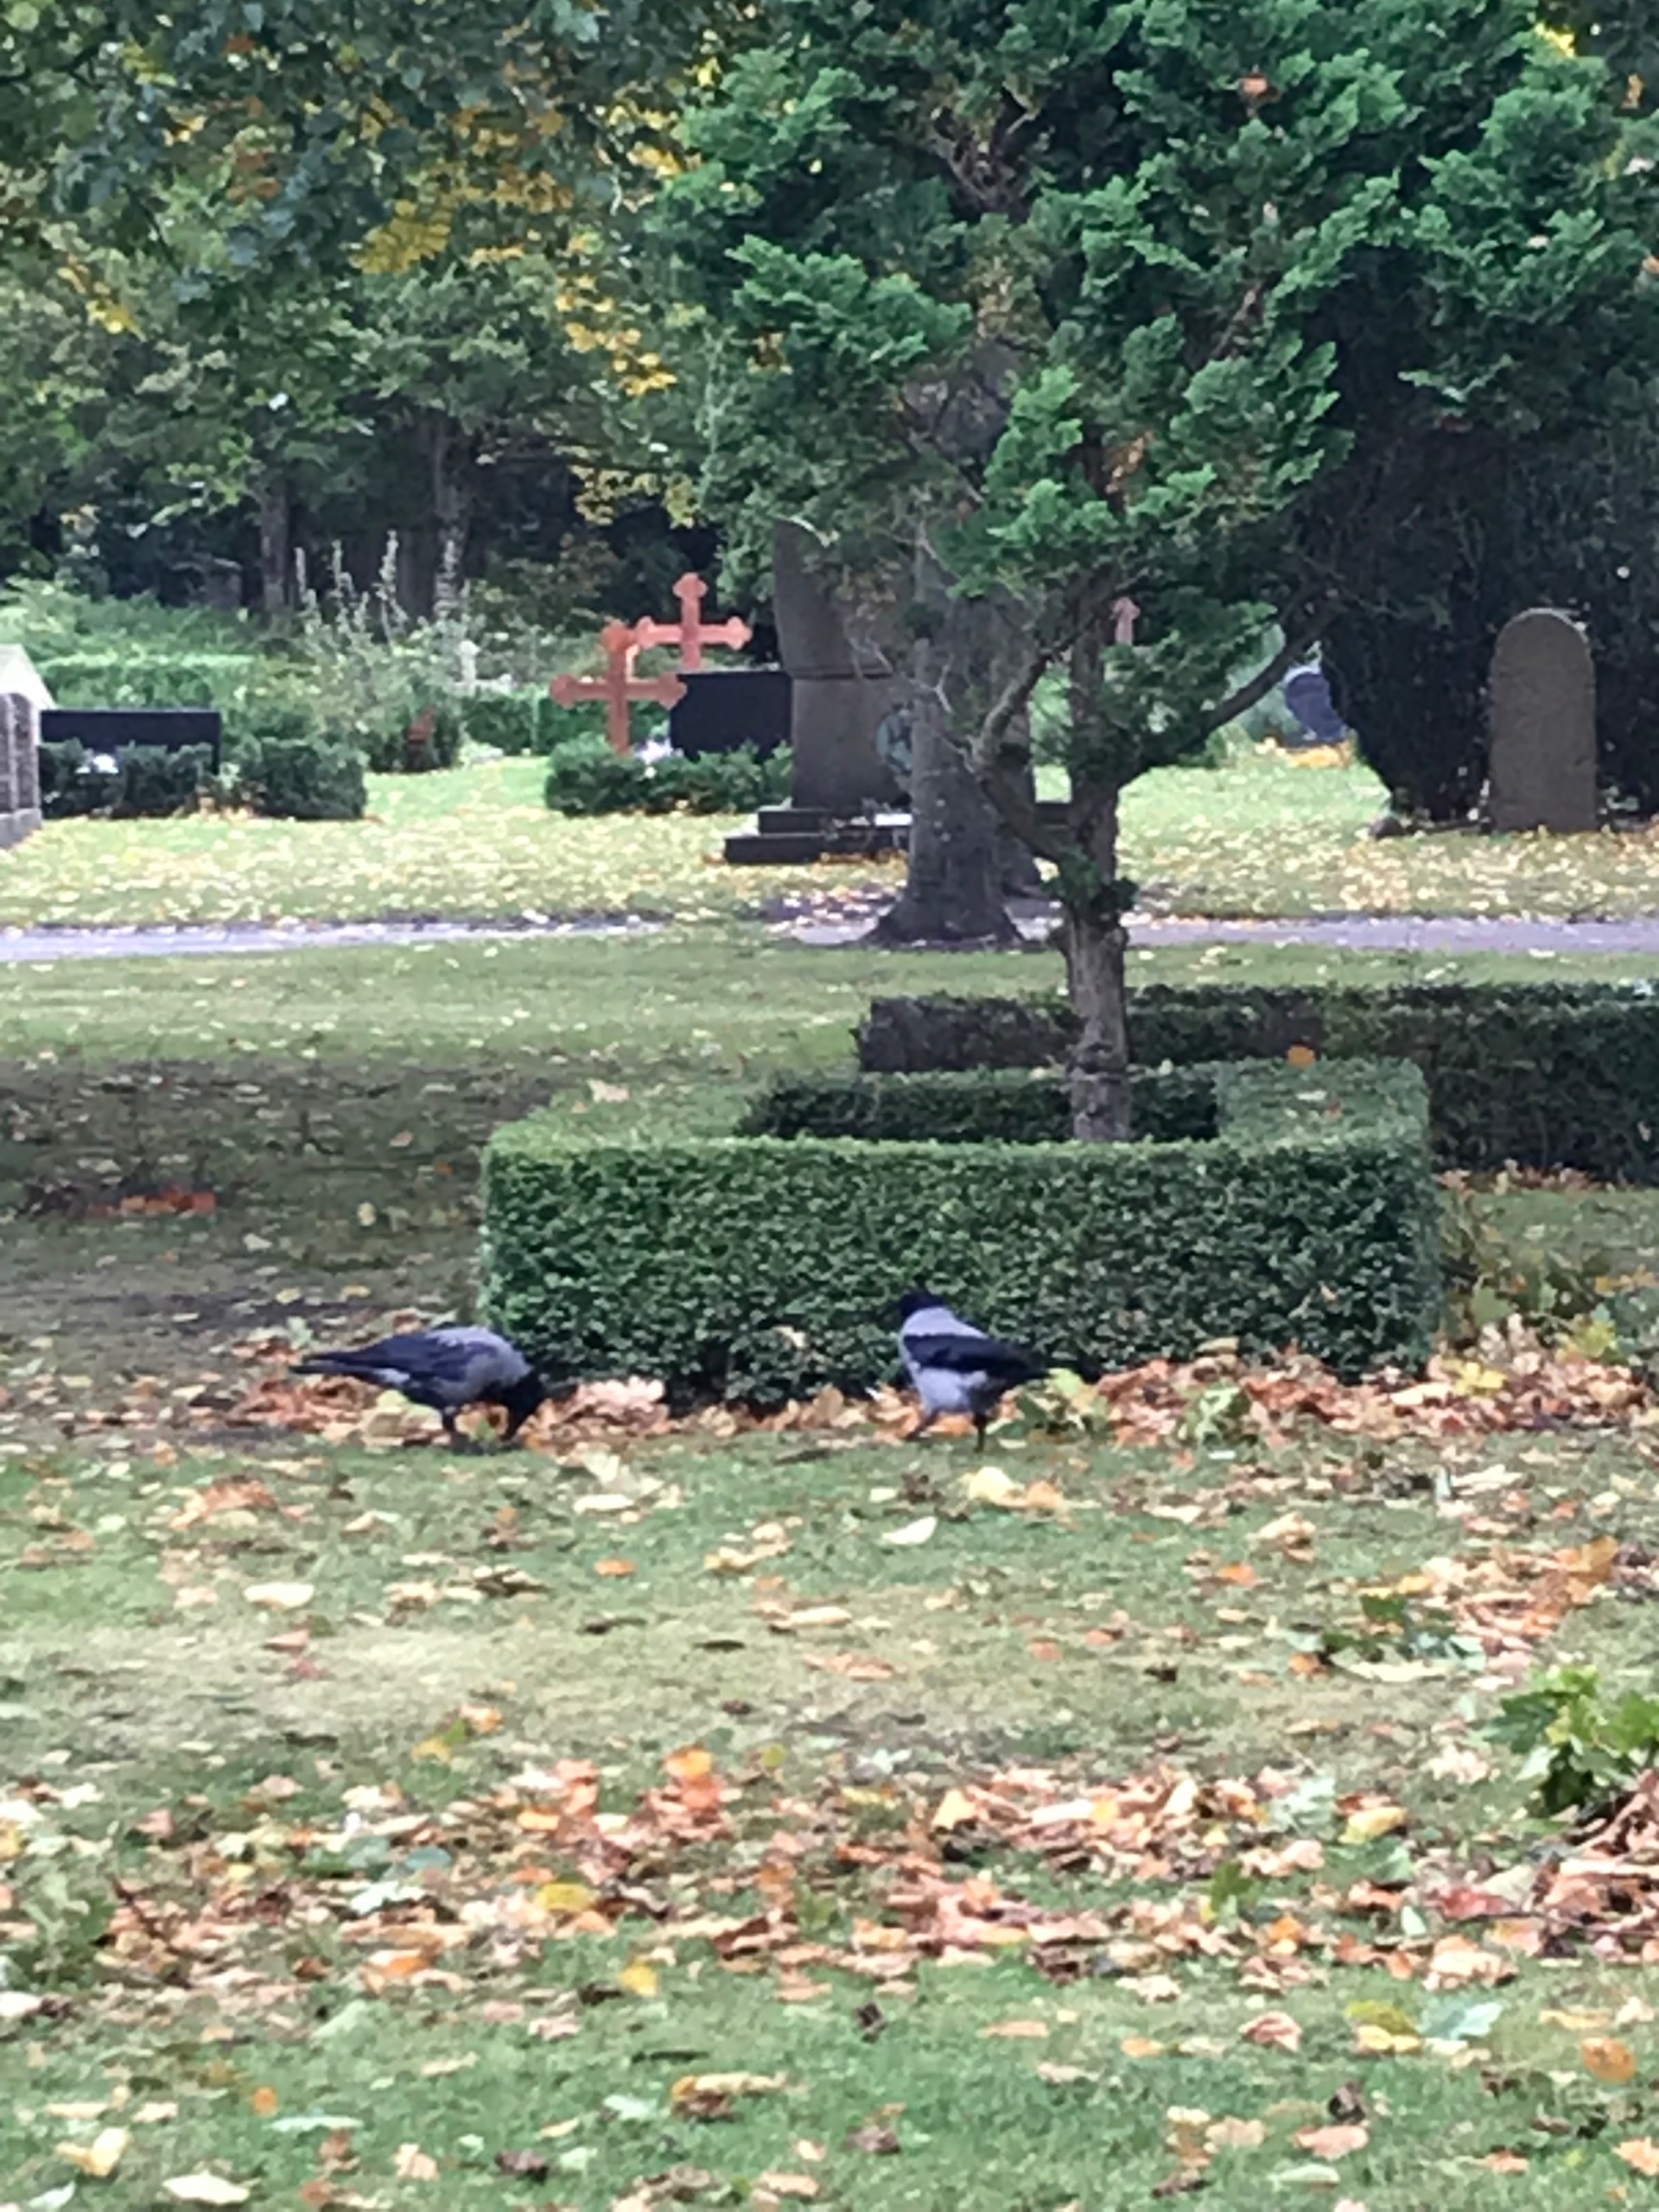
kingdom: Animalia
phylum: Chordata
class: Aves
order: Passeriformes
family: Corvidae
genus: Corvus
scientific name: Corvus cornix
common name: Gråkrage
